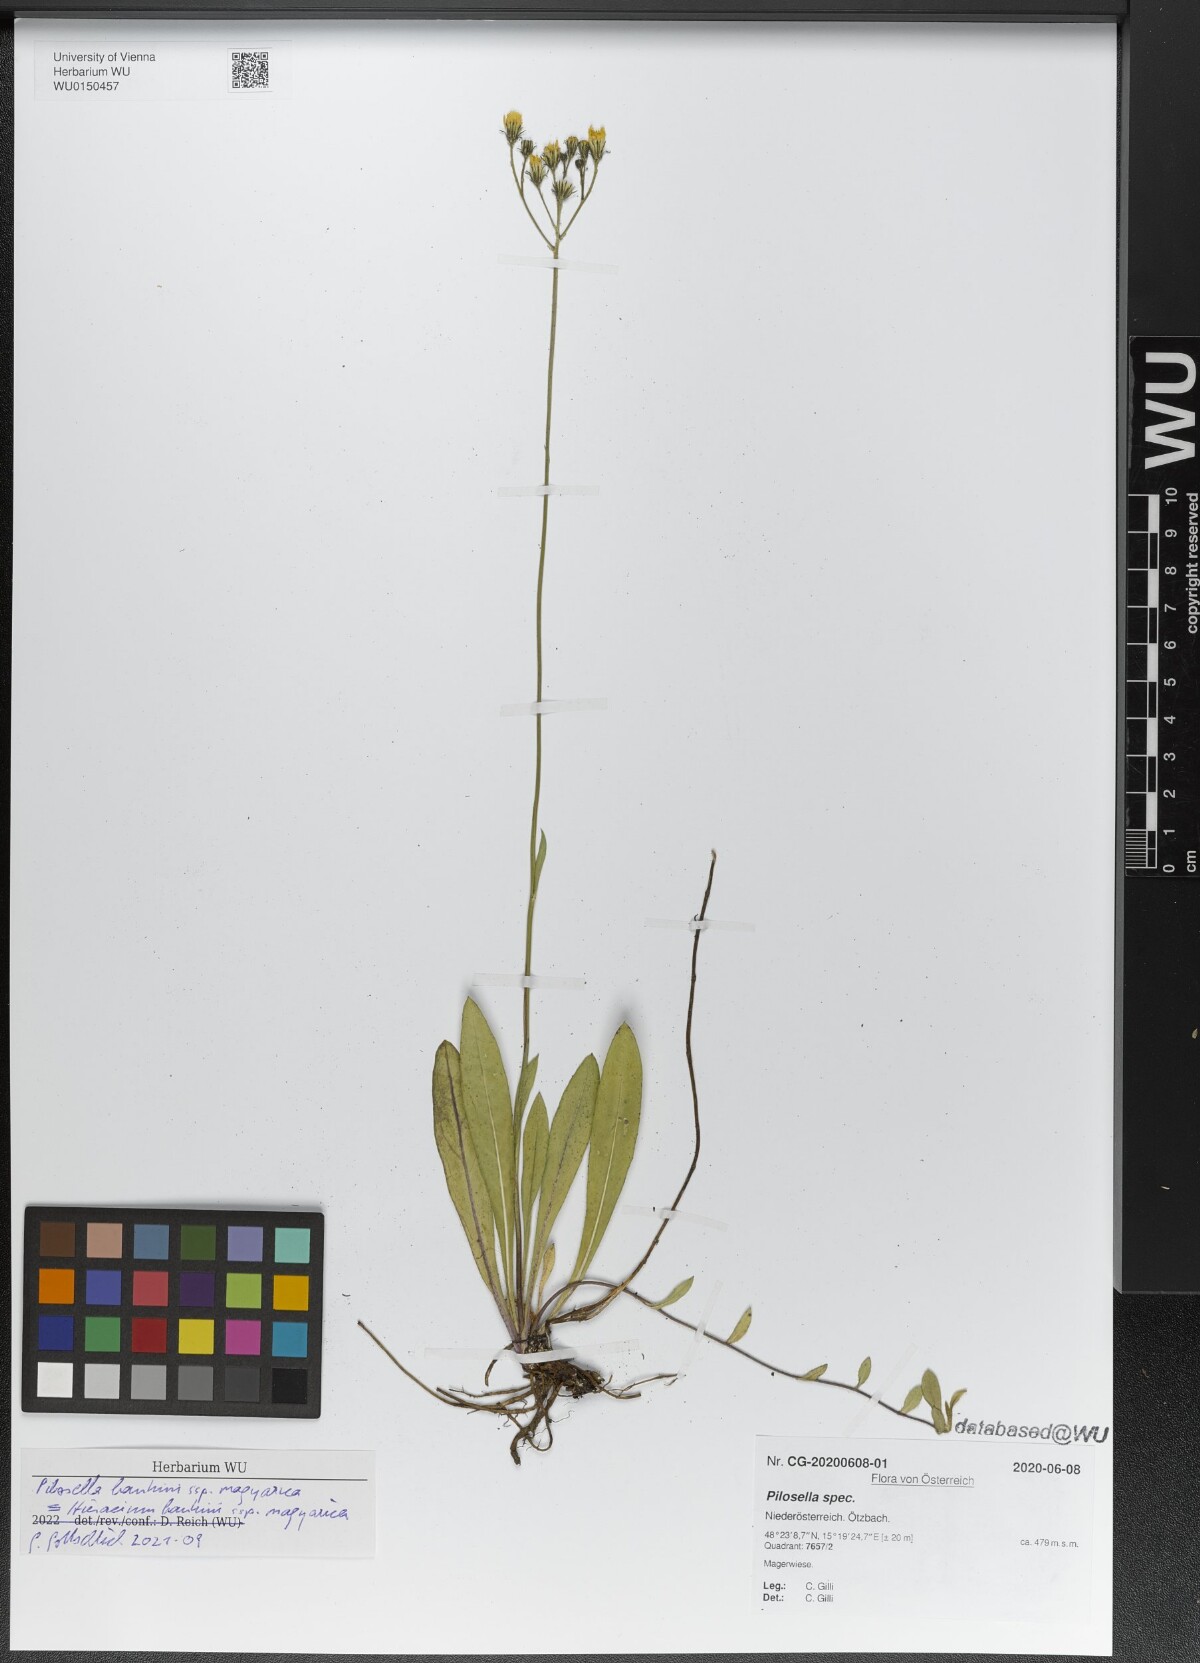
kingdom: Plantae
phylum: Tracheophyta
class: Magnoliopsida
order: Asterales
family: Asteraceae
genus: Pilosella
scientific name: Pilosella bauhini
